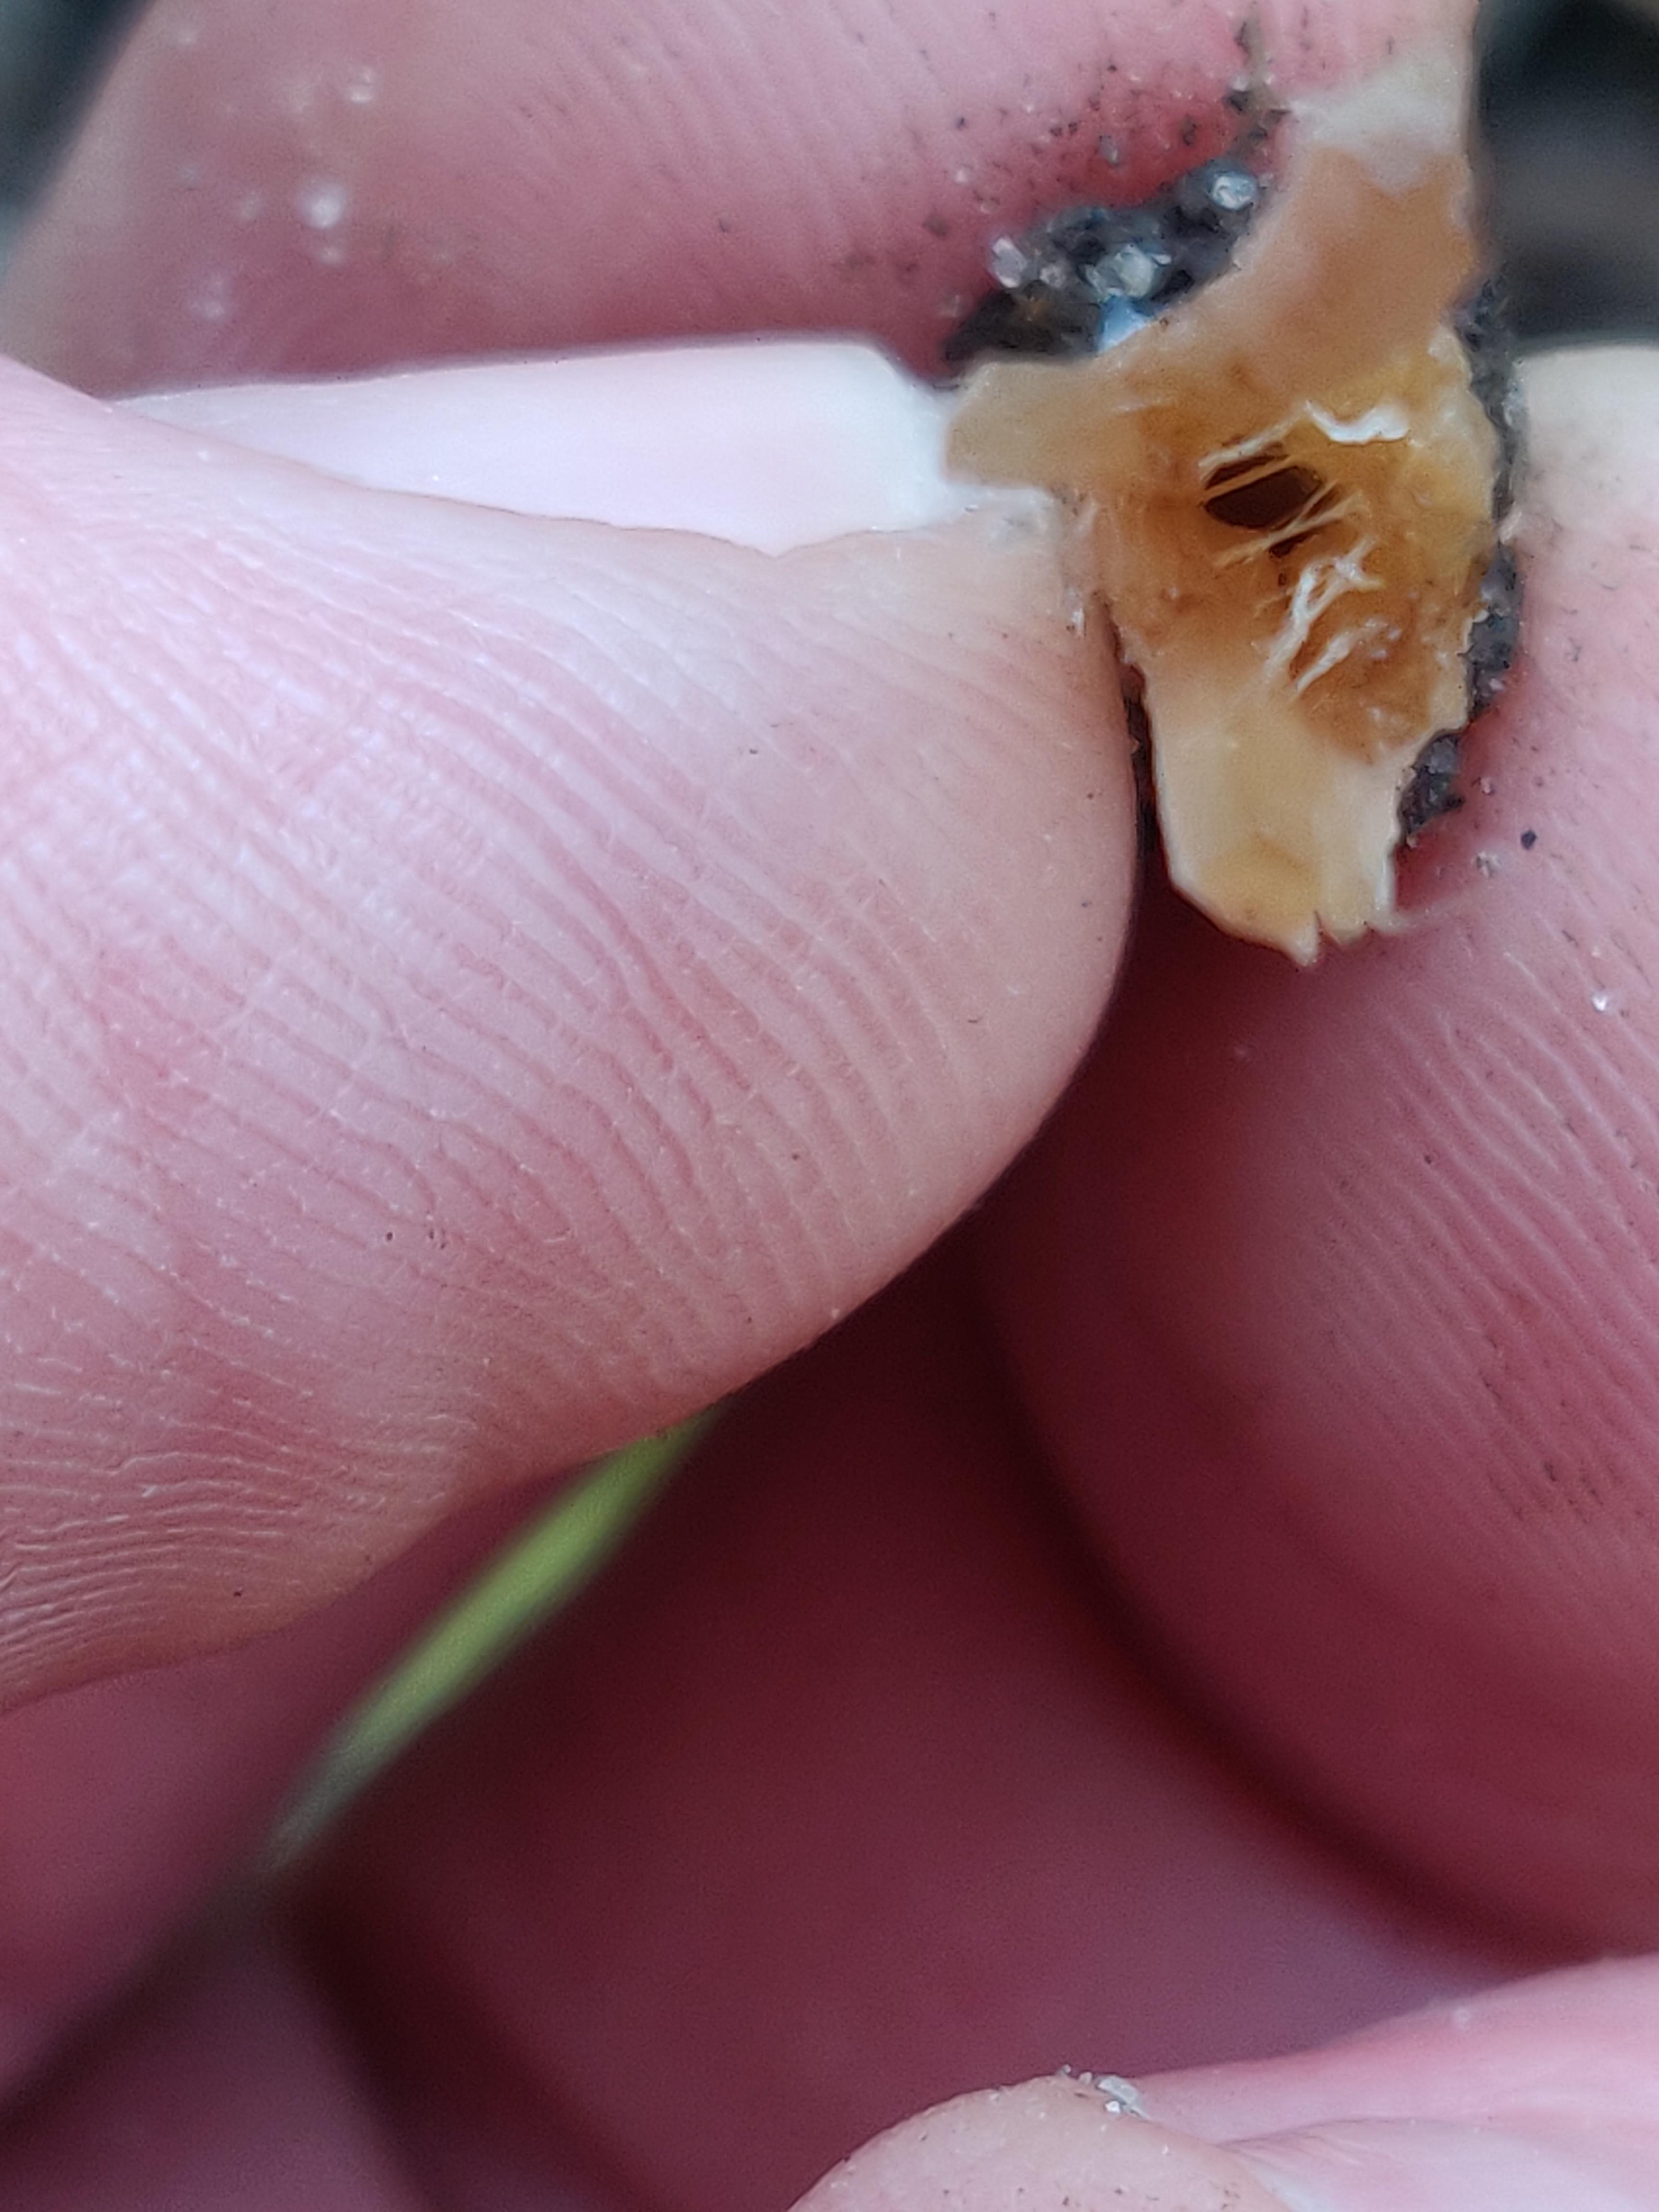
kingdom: Fungi
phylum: Basidiomycota
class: Agaricomycetes
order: Agaricales
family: Psathyrellaceae
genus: Coprinellus
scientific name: Coprinellus micaceus
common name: glimmer-blækhat
